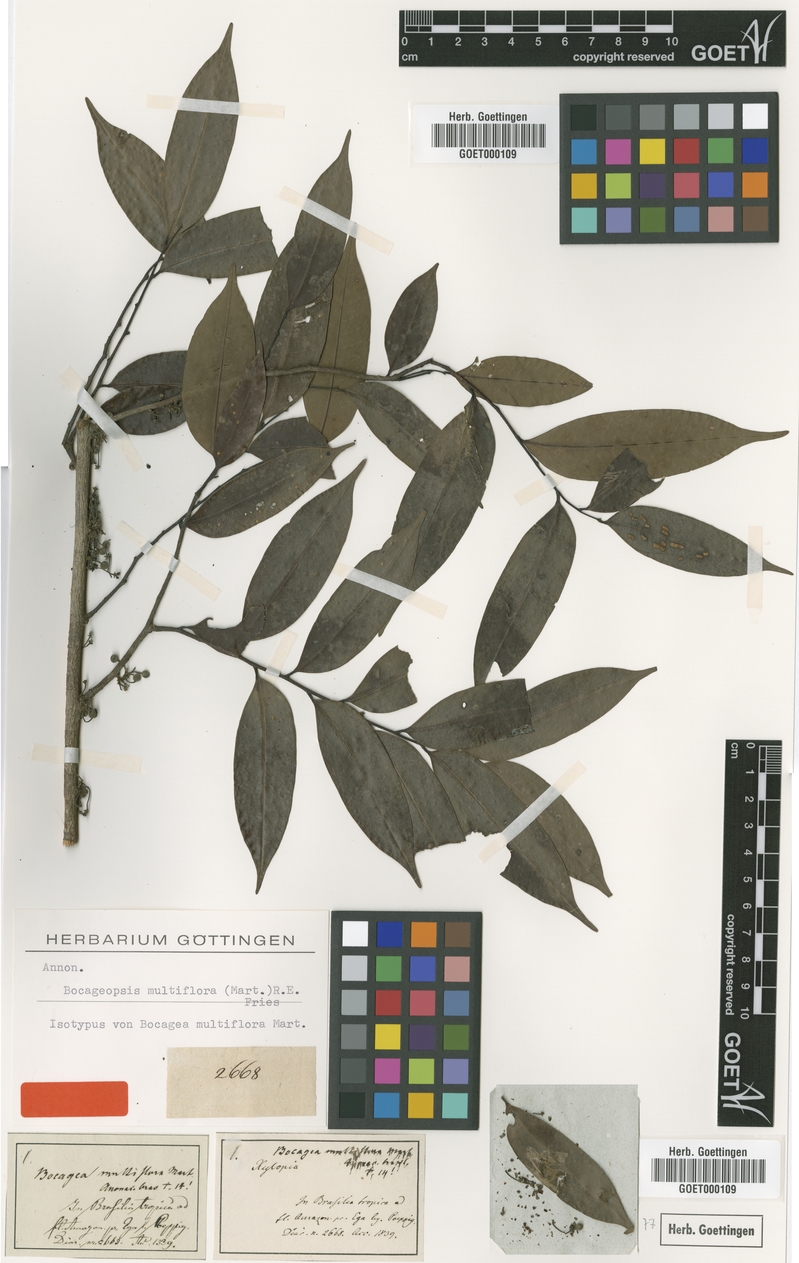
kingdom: Plantae
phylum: Tracheophyta
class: Magnoliopsida
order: Magnoliales
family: Annonaceae
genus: Bocageopsis
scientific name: Bocageopsis multiflora
